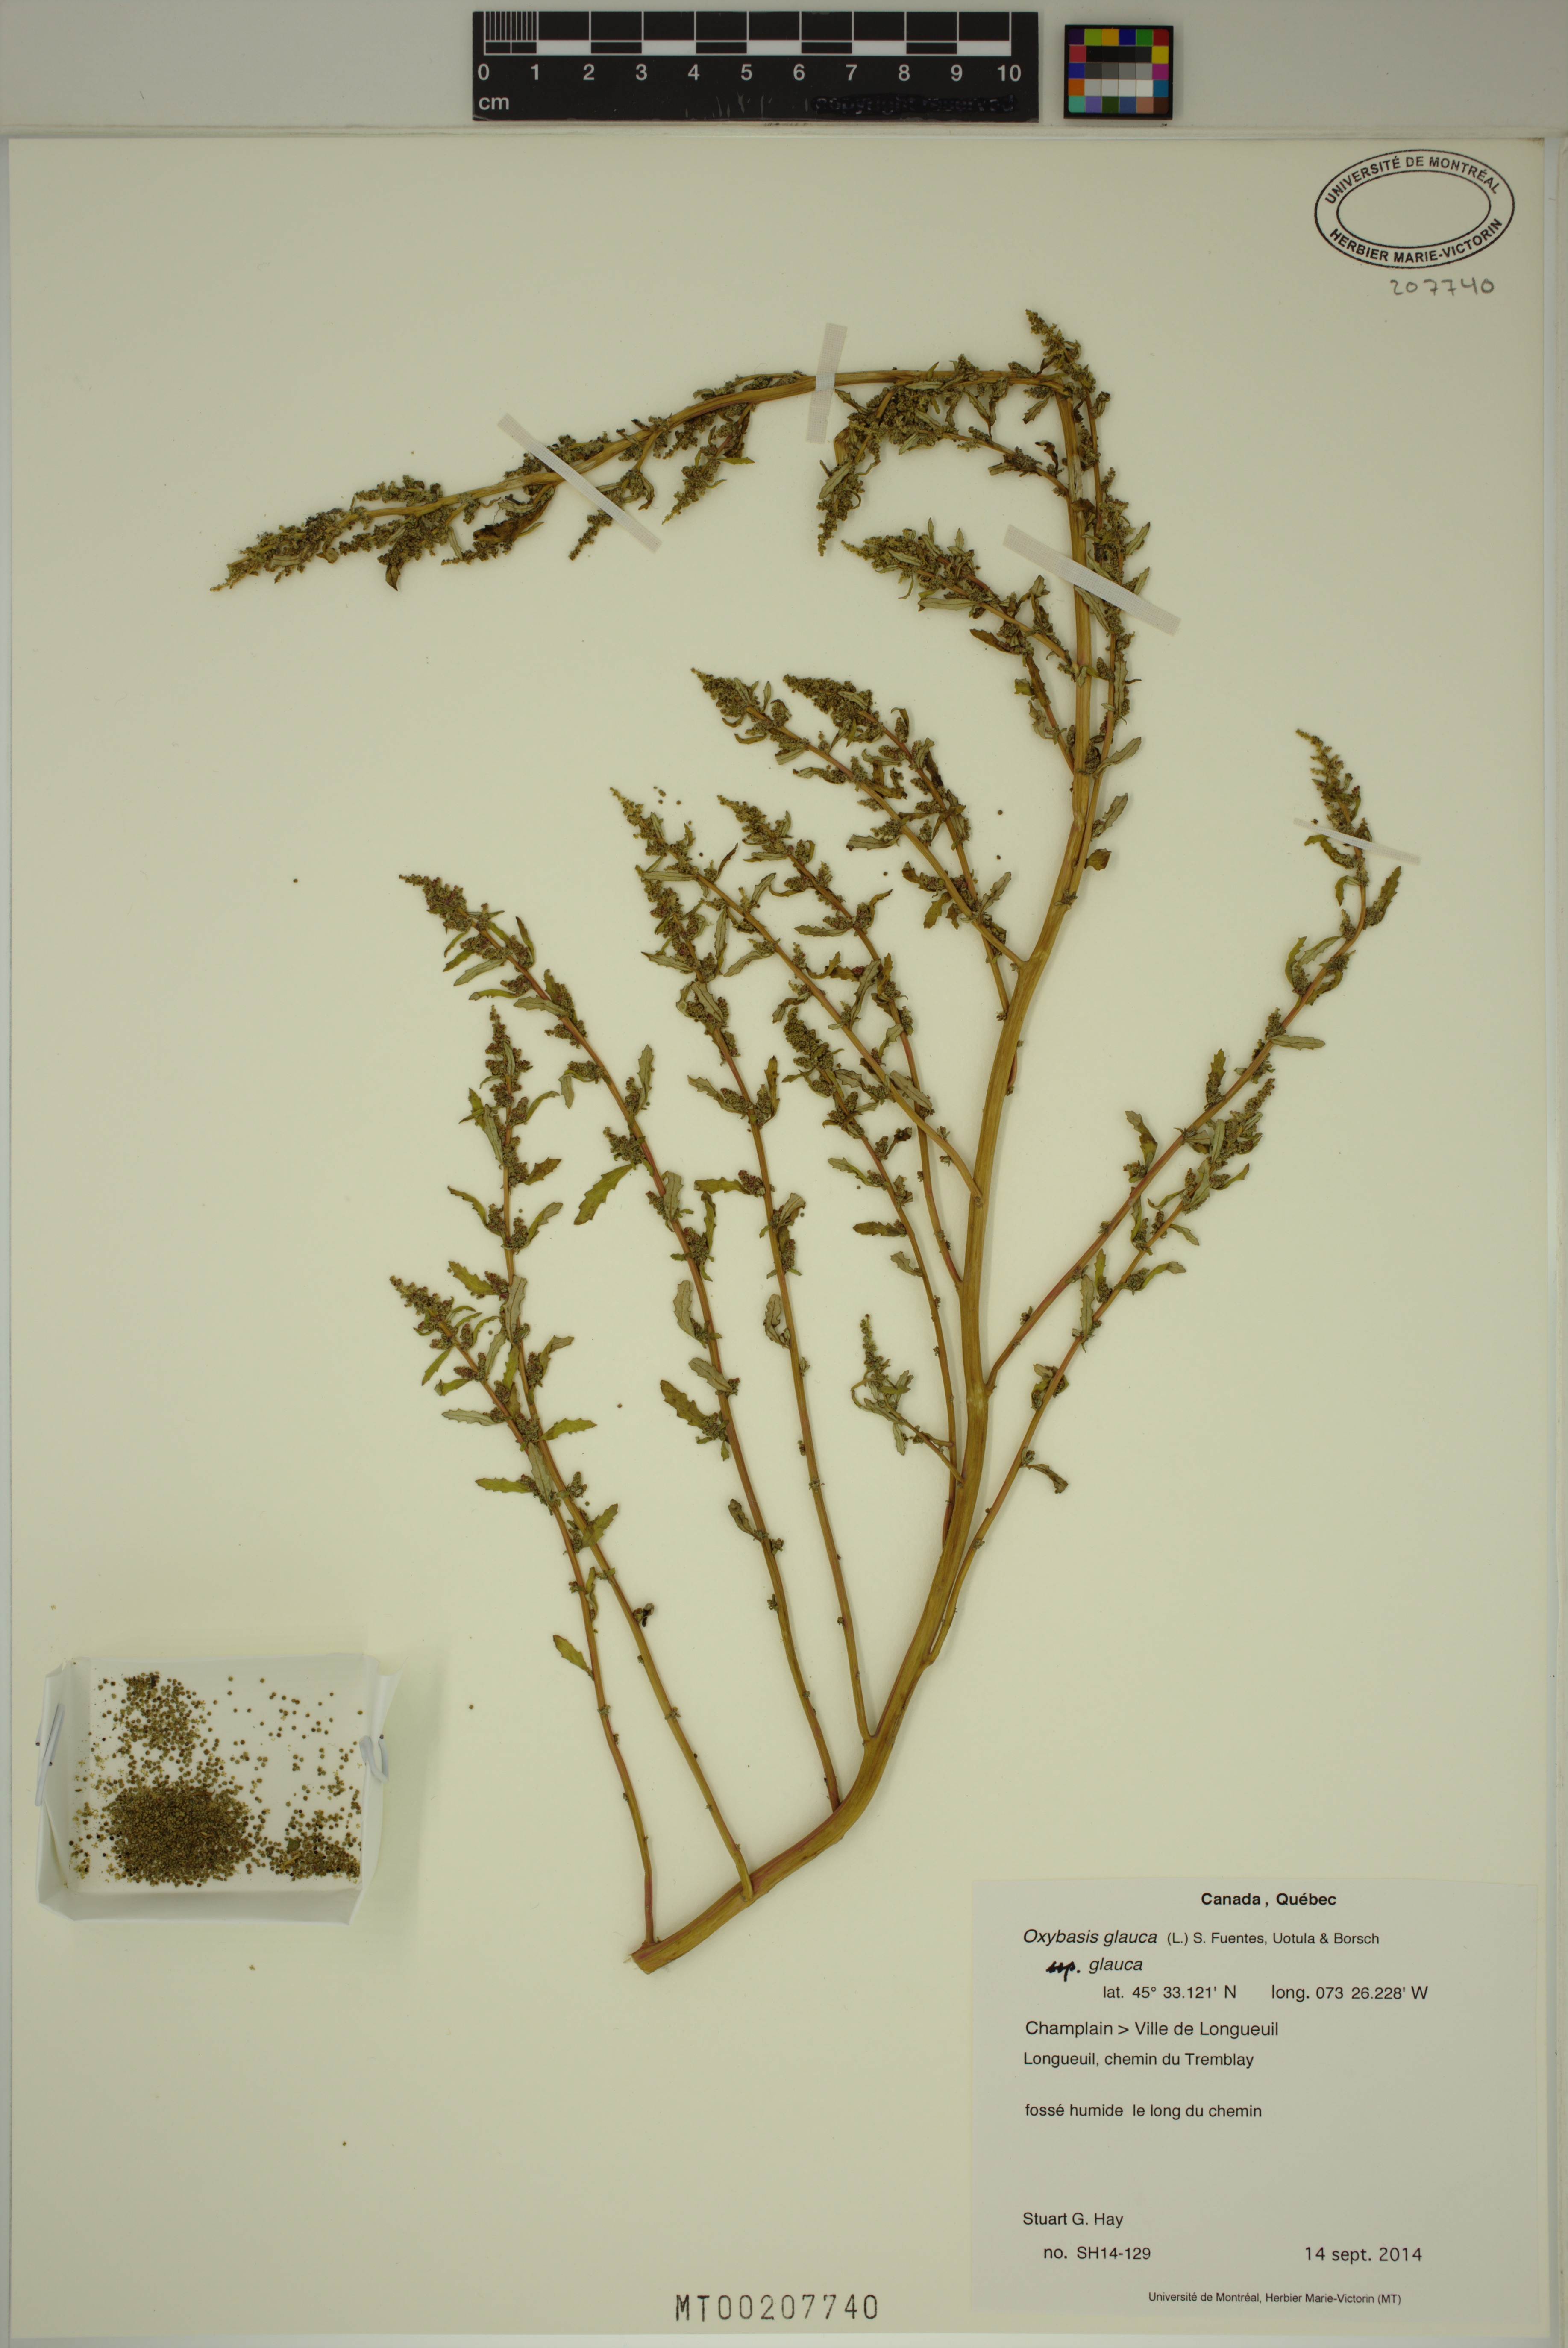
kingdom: Plantae
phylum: Tracheophyta
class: Magnoliopsida
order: Caryophyllales
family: Amaranthaceae
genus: Oxybasis
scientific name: Oxybasis glauca
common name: Glaucous goosefoot
